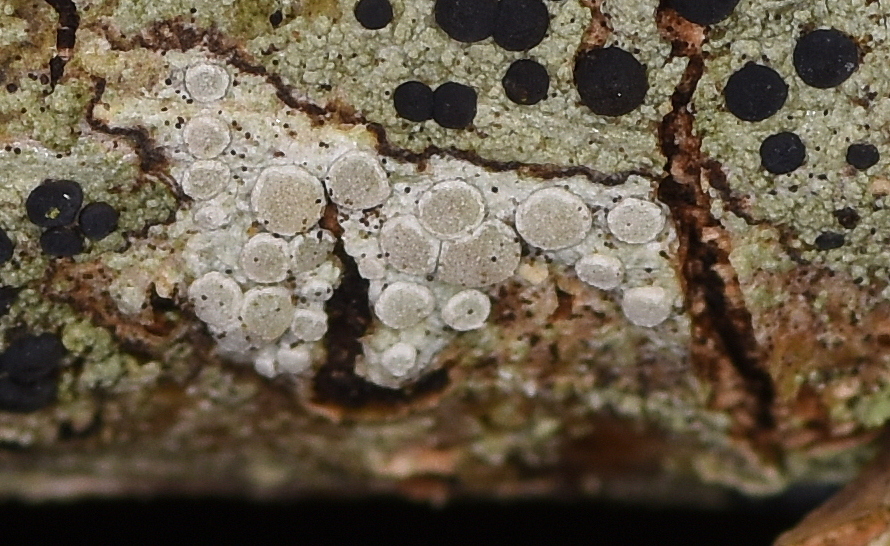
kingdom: Fungi
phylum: Ascomycota
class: Lecanoromycetes
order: Lecanorales
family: Lecanoraceae
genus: Glaucomaria
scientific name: Glaucomaria carpinea
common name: hviddugget kantskivelav
